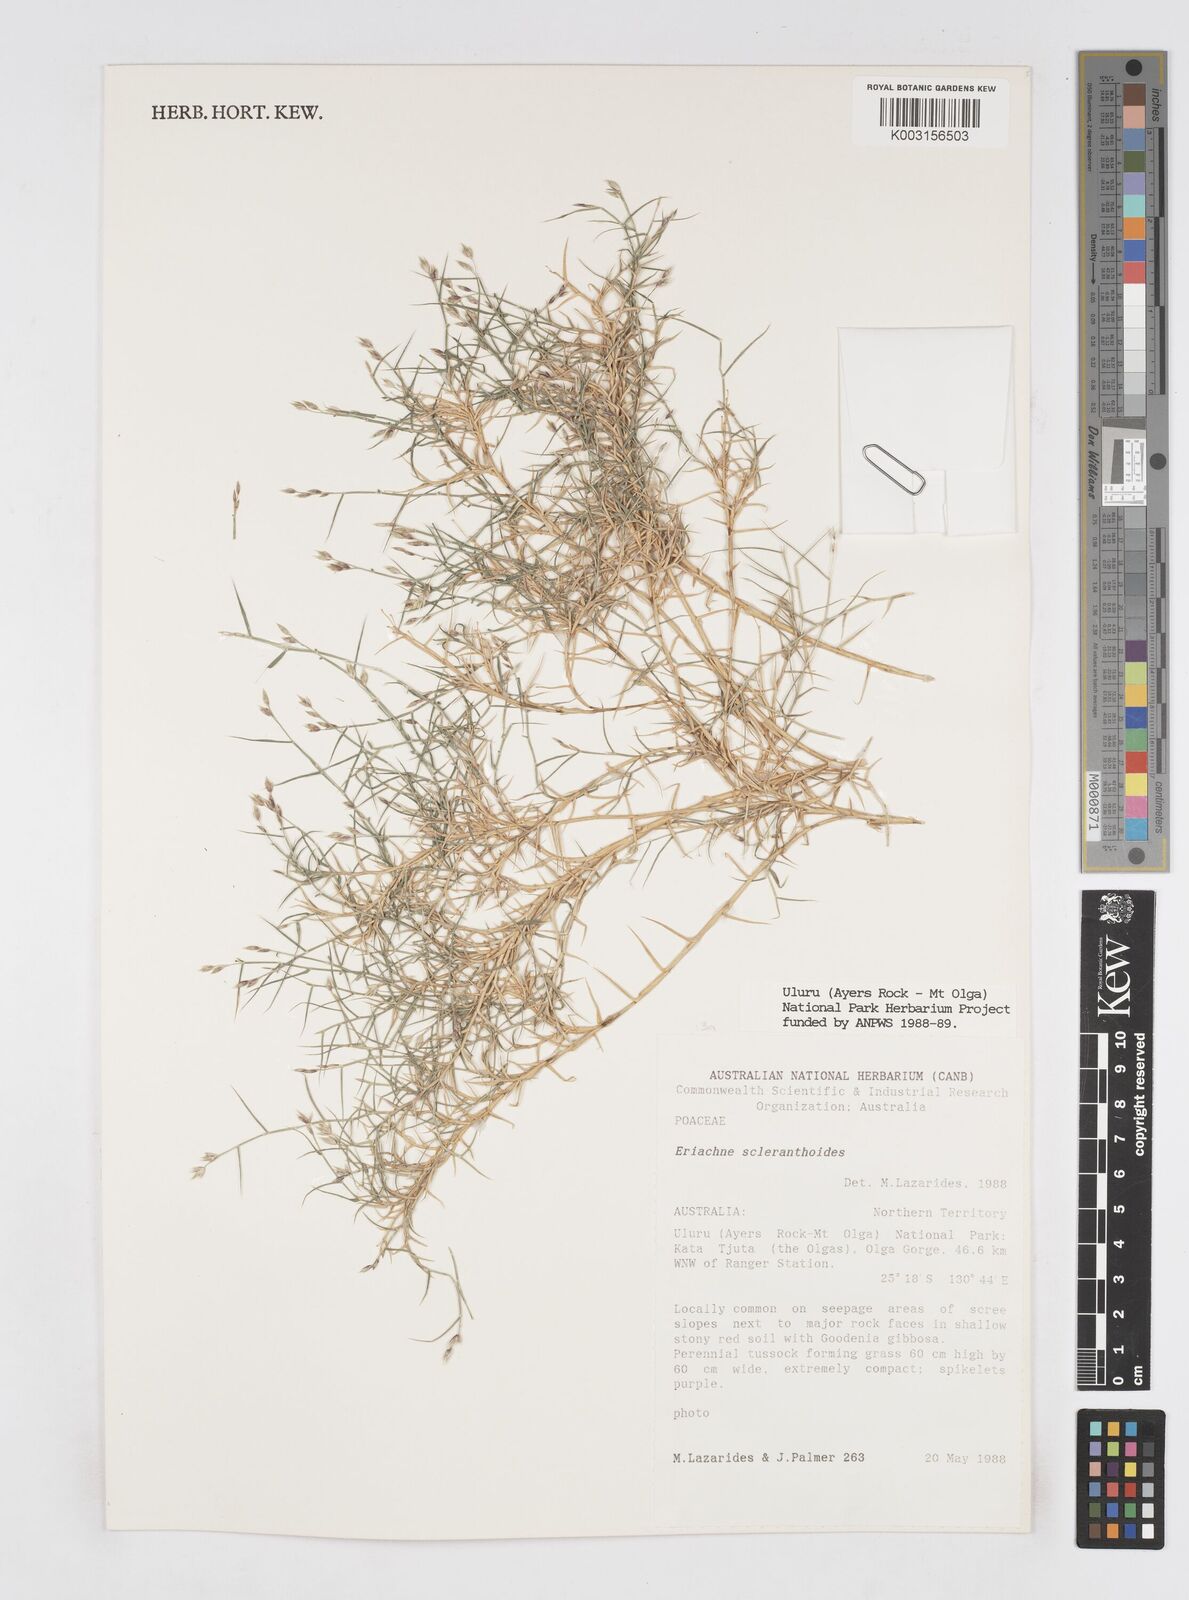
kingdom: Plantae
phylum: Tracheophyta
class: Liliopsida
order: Poales
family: Poaceae
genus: Eriachne
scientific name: Eriachne scleranthoides
